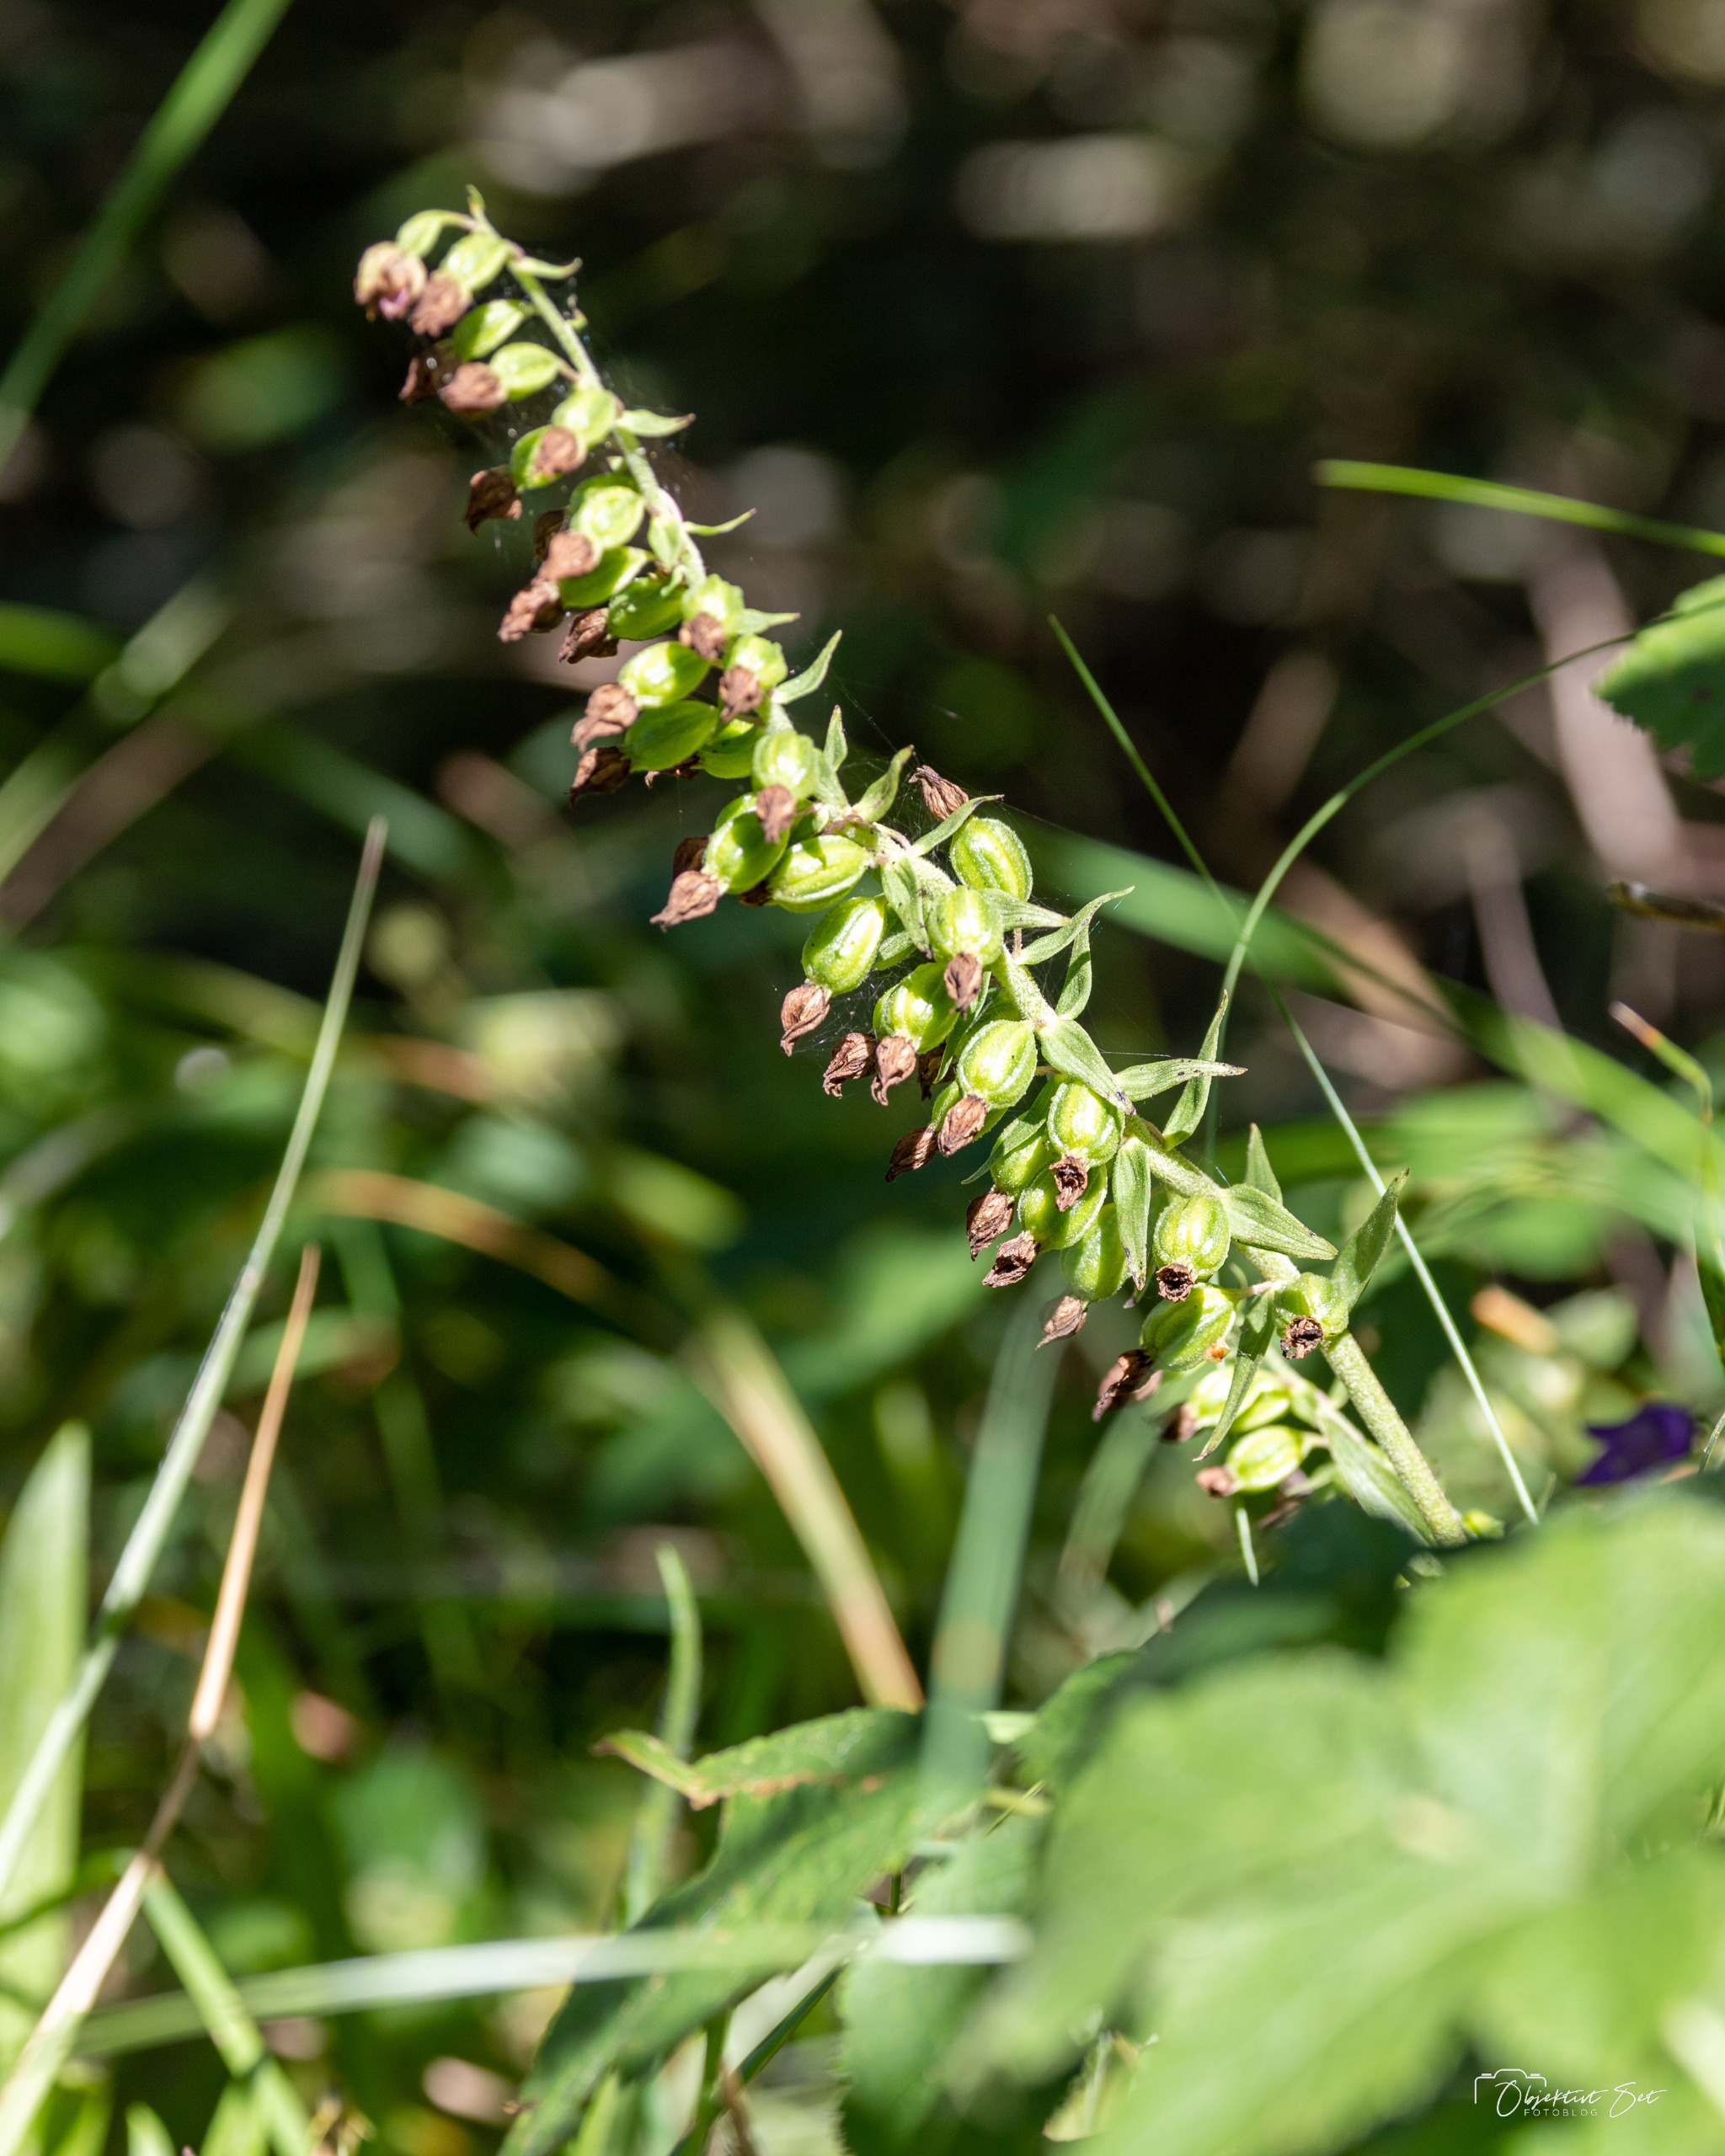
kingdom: Plantae
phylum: Tracheophyta
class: Liliopsida
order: Asparagales
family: Orchidaceae
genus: Epipactis
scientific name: Epipactis helleborine
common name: Skov-hullæbe
